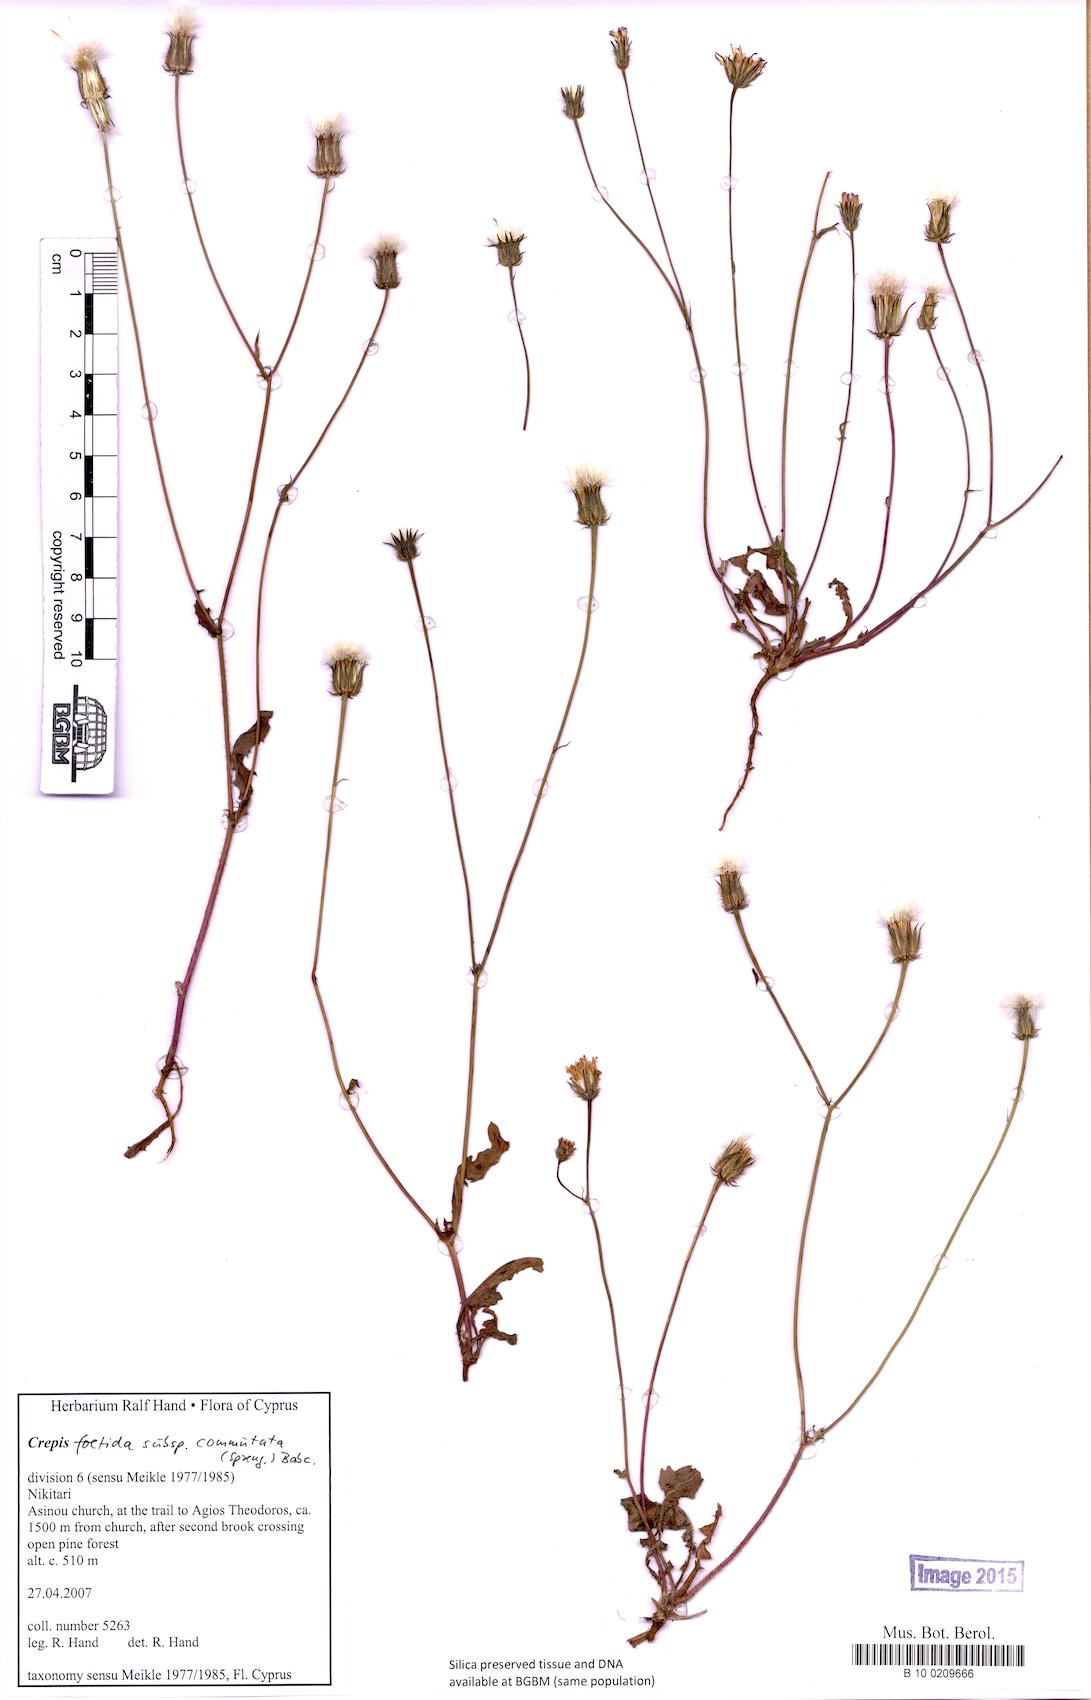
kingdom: Plantae
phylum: Tracheophyta
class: Magnoliopsida
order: Asterales
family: Asteraceae
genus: Crepis
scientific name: Crepis commutata
